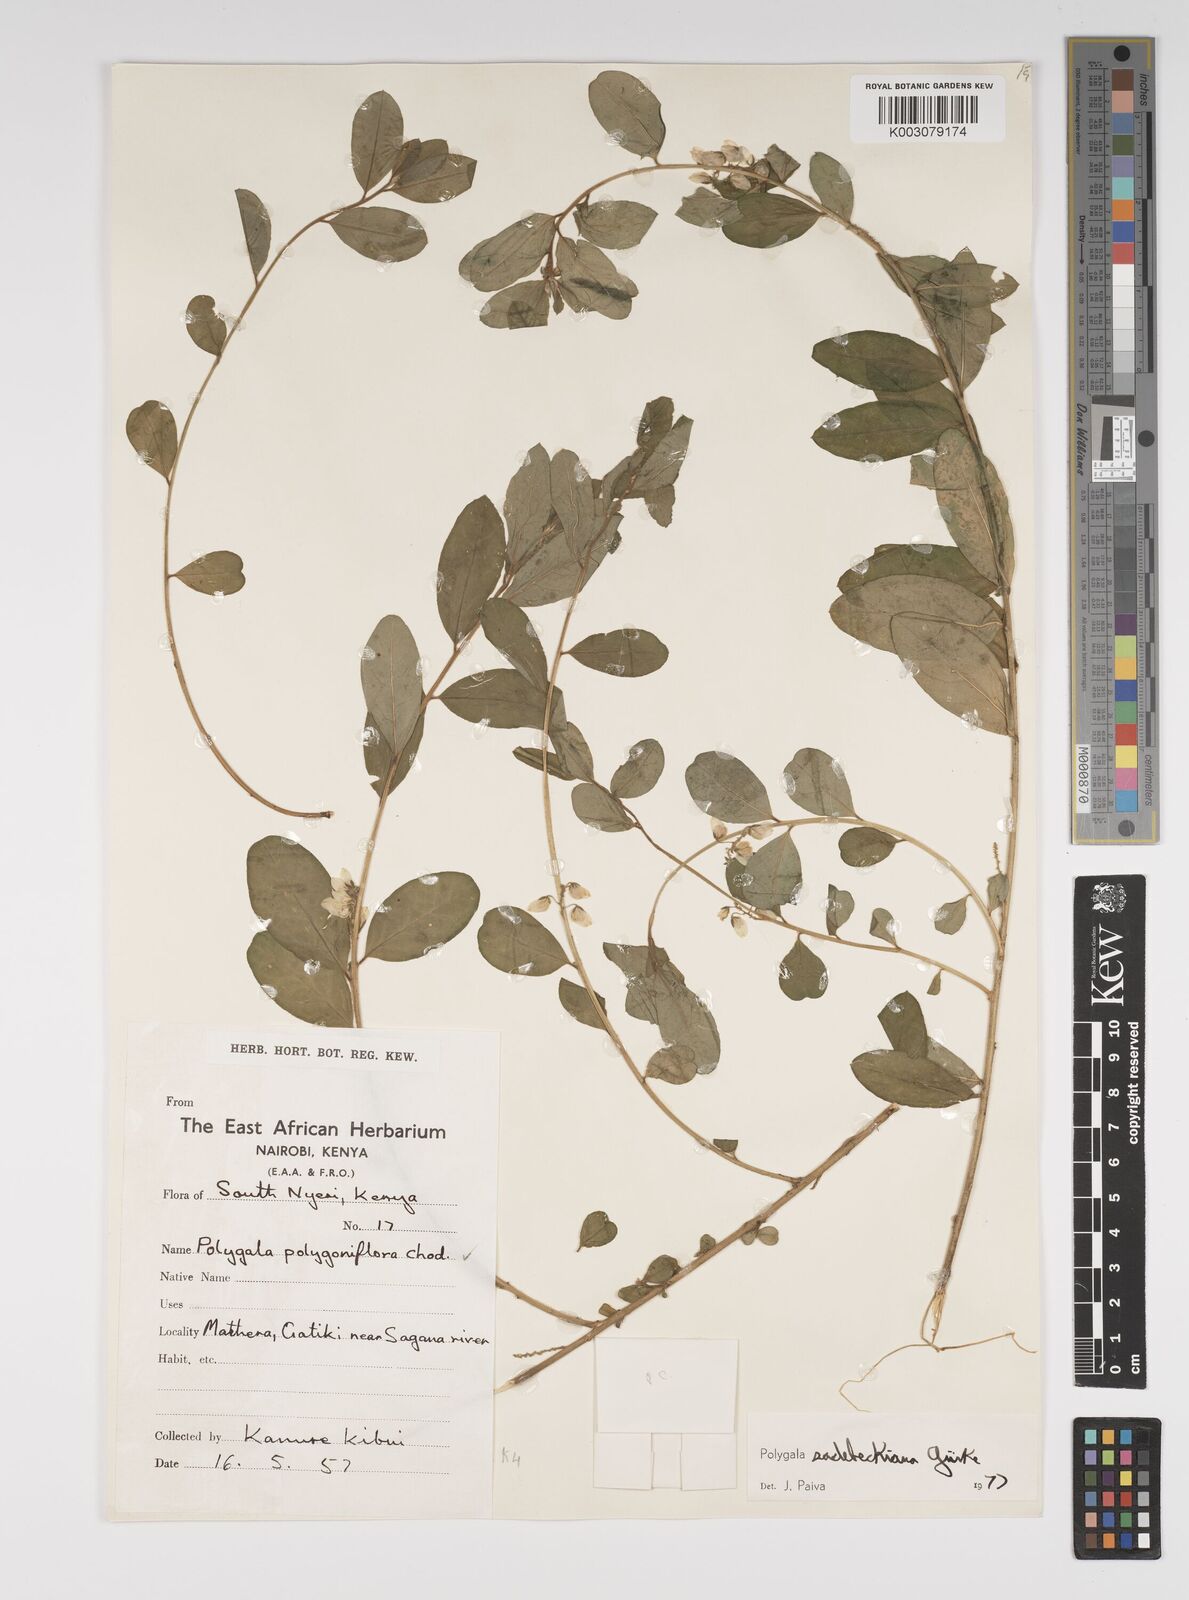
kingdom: Plantae
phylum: Tracheophyta
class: Magnoliopsida
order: Fabales
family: Polygalaceae
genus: Polygala
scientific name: Polygala sadebeckiana
